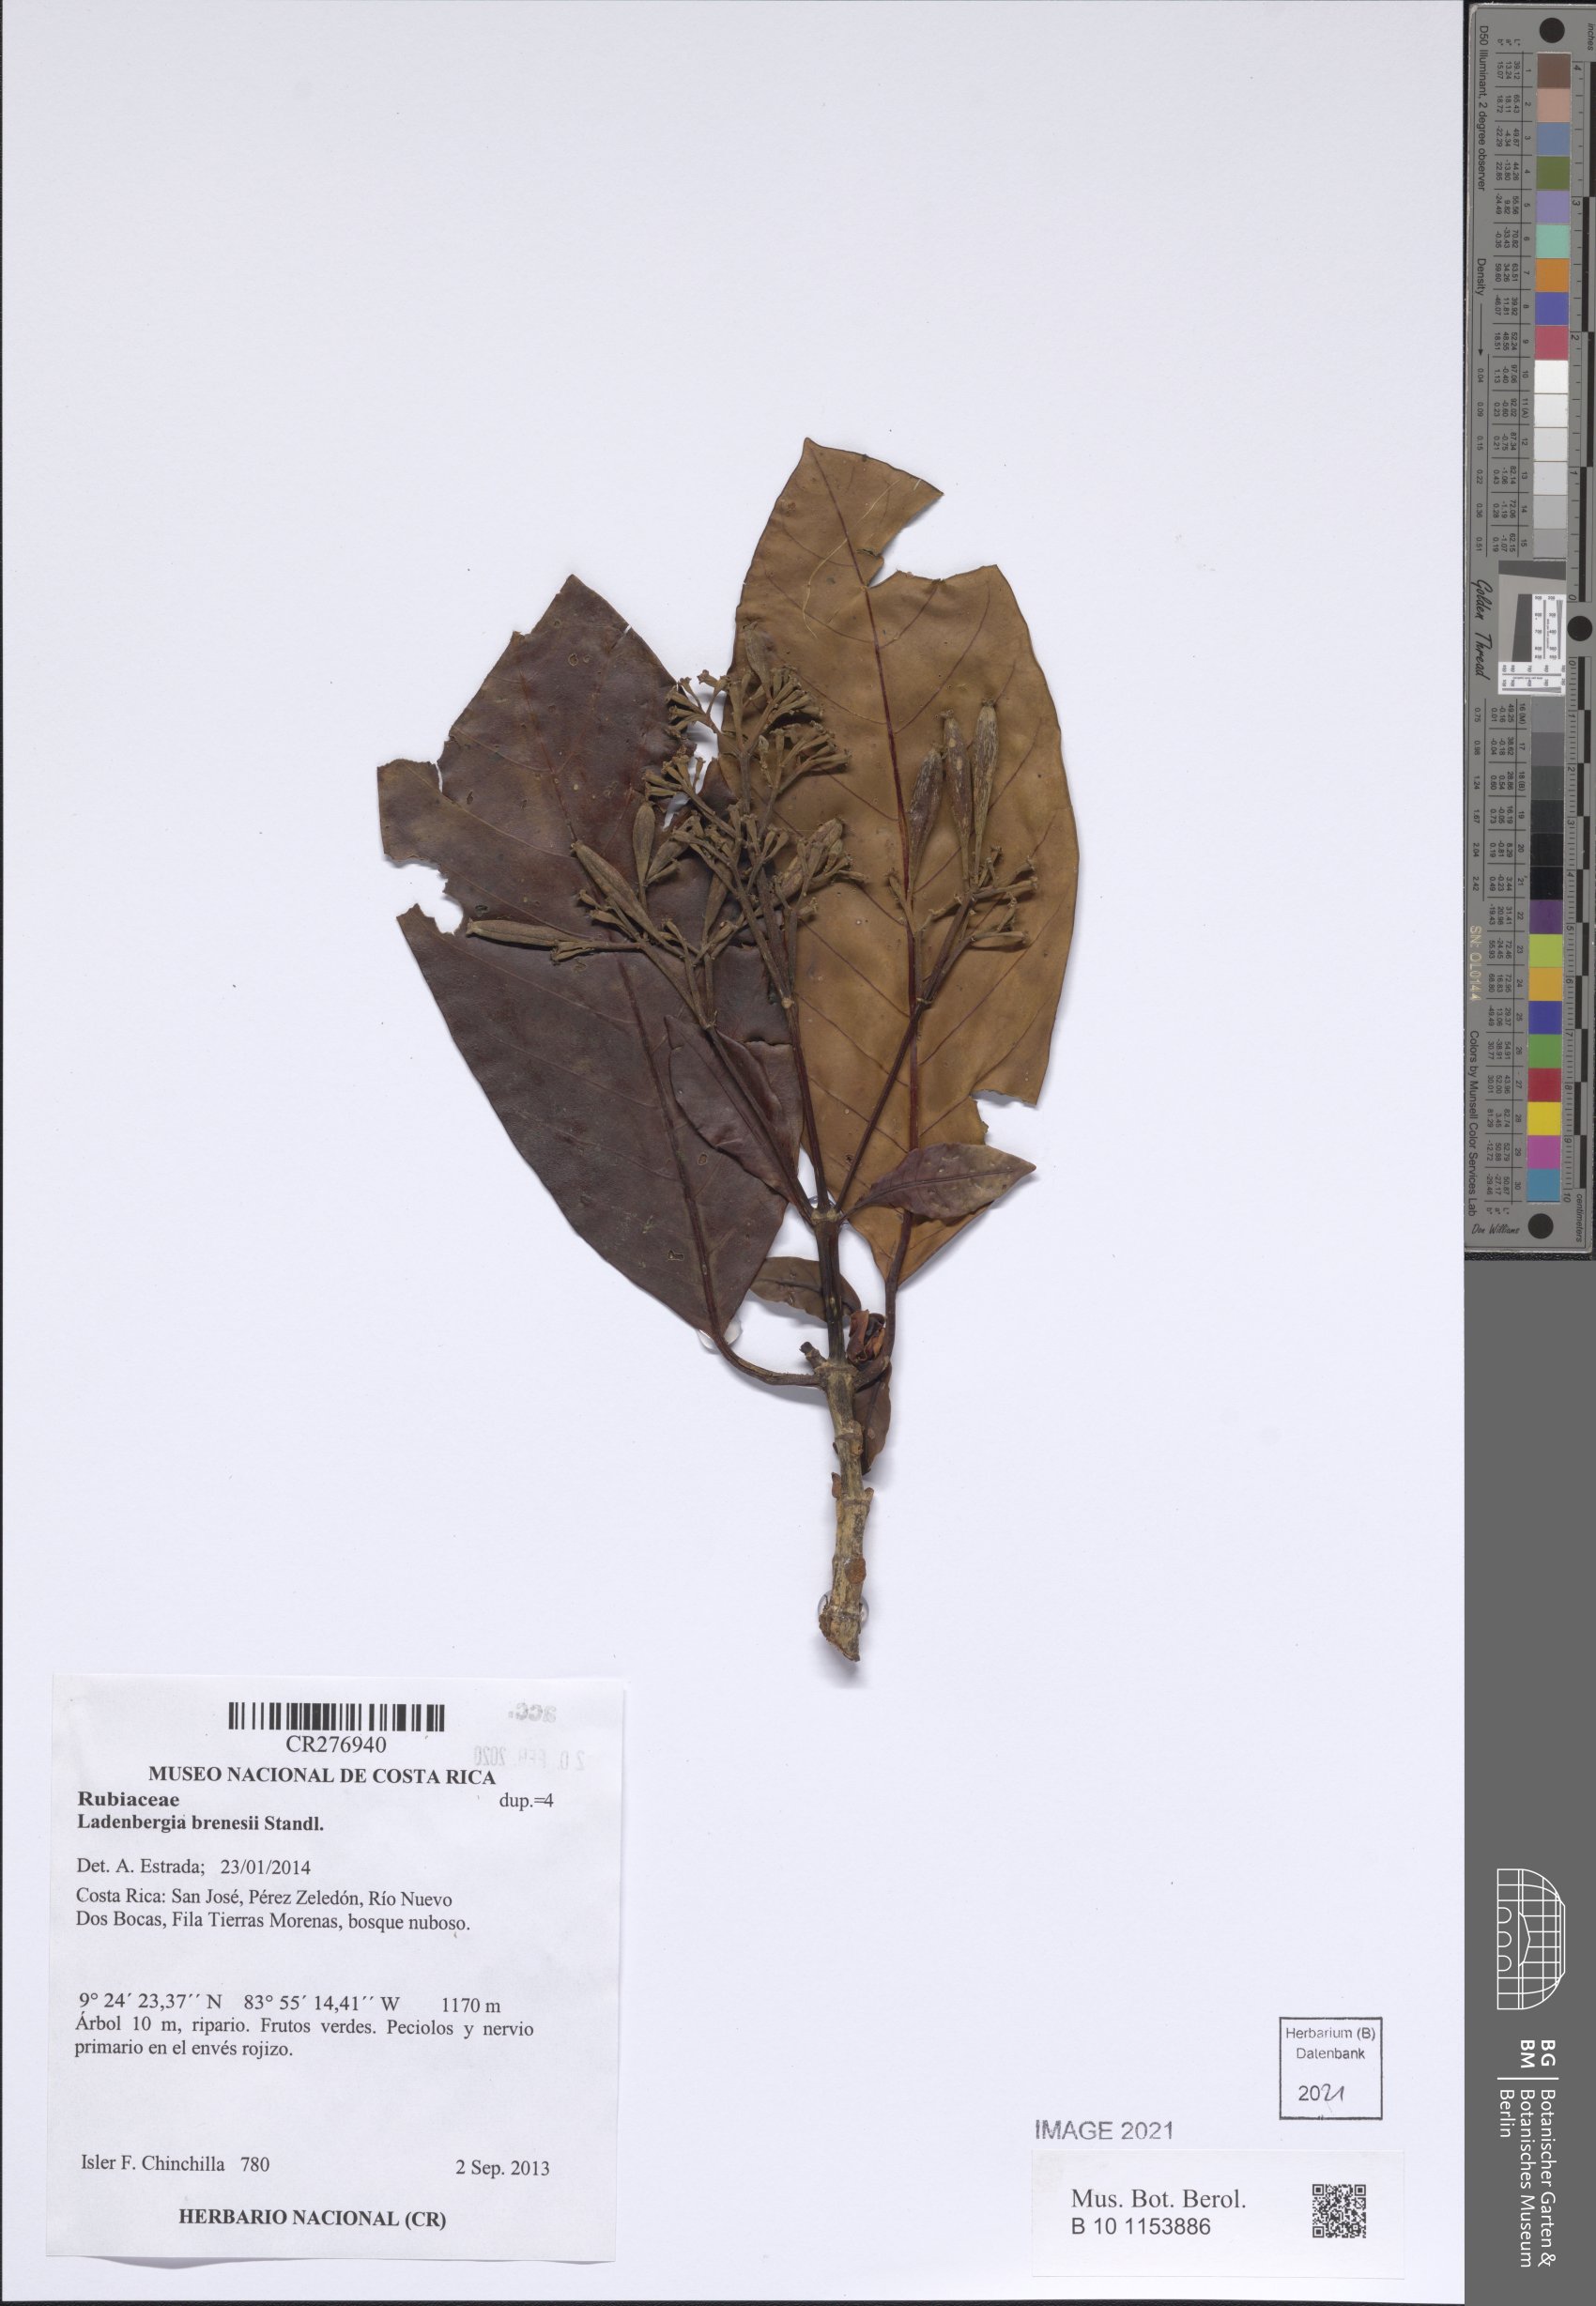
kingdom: Plantae
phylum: Tracheophyta
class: Magnoliopsida
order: Gentianales
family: Rubiaceae
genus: Ladenbergia
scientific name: Ladenbergia brenesii
